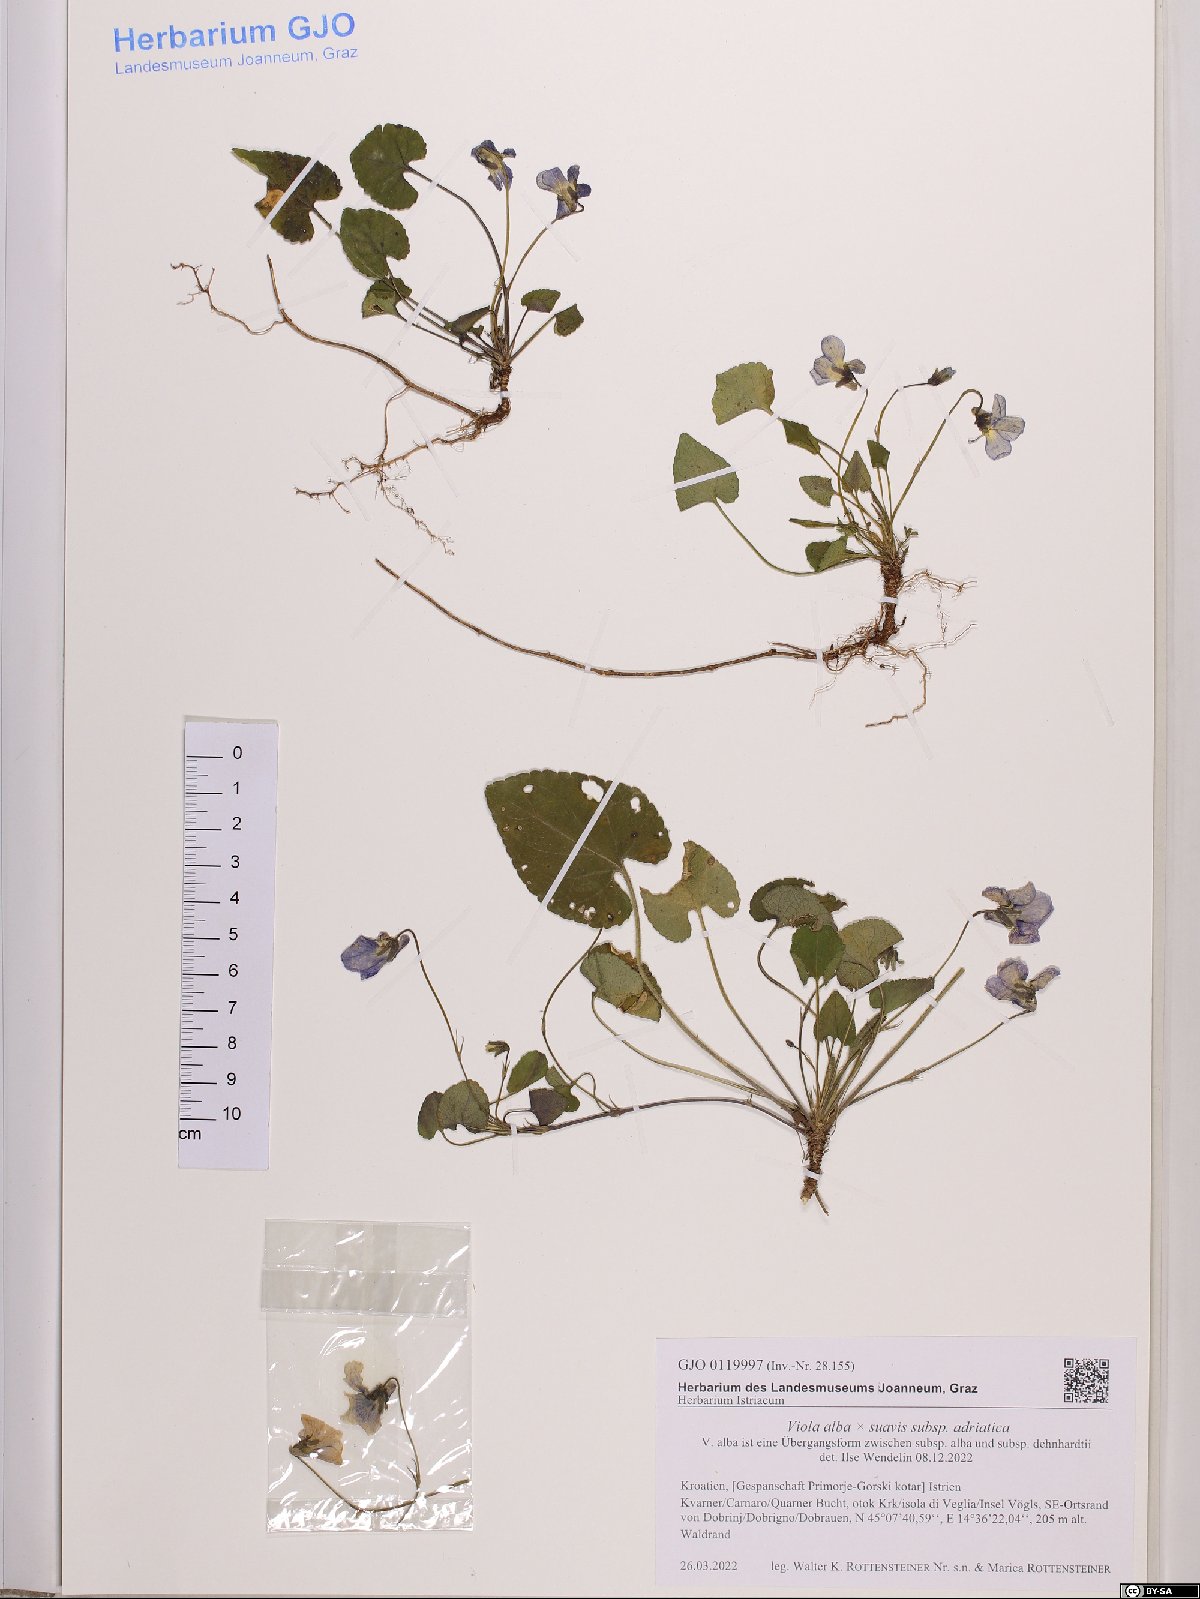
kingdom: Plantae
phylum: Tracheophyta
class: Magnoliopsida
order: Malpighiales
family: Violaceae
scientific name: Violaceae
